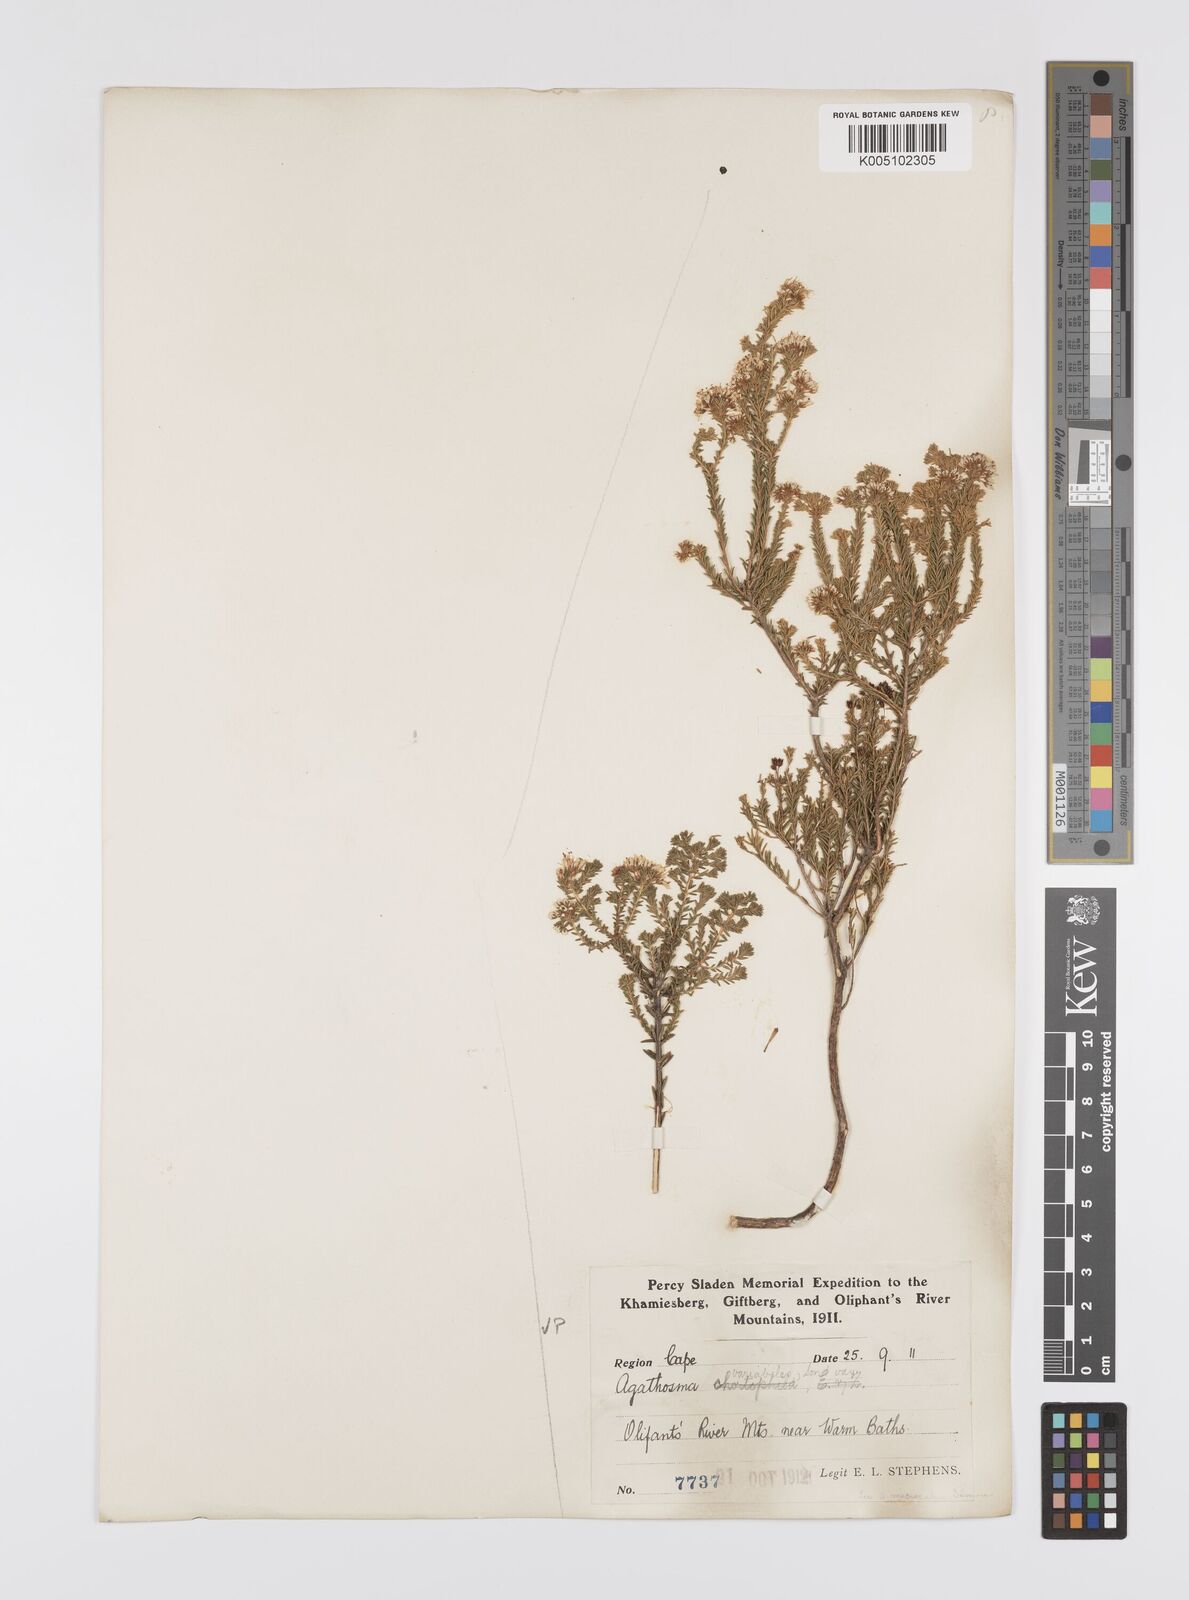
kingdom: Plantae
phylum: Tracheophyta
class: Magnoliopsida
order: Sapindales
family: Rutaceae
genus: Agathosma
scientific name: Agathosma capensis
